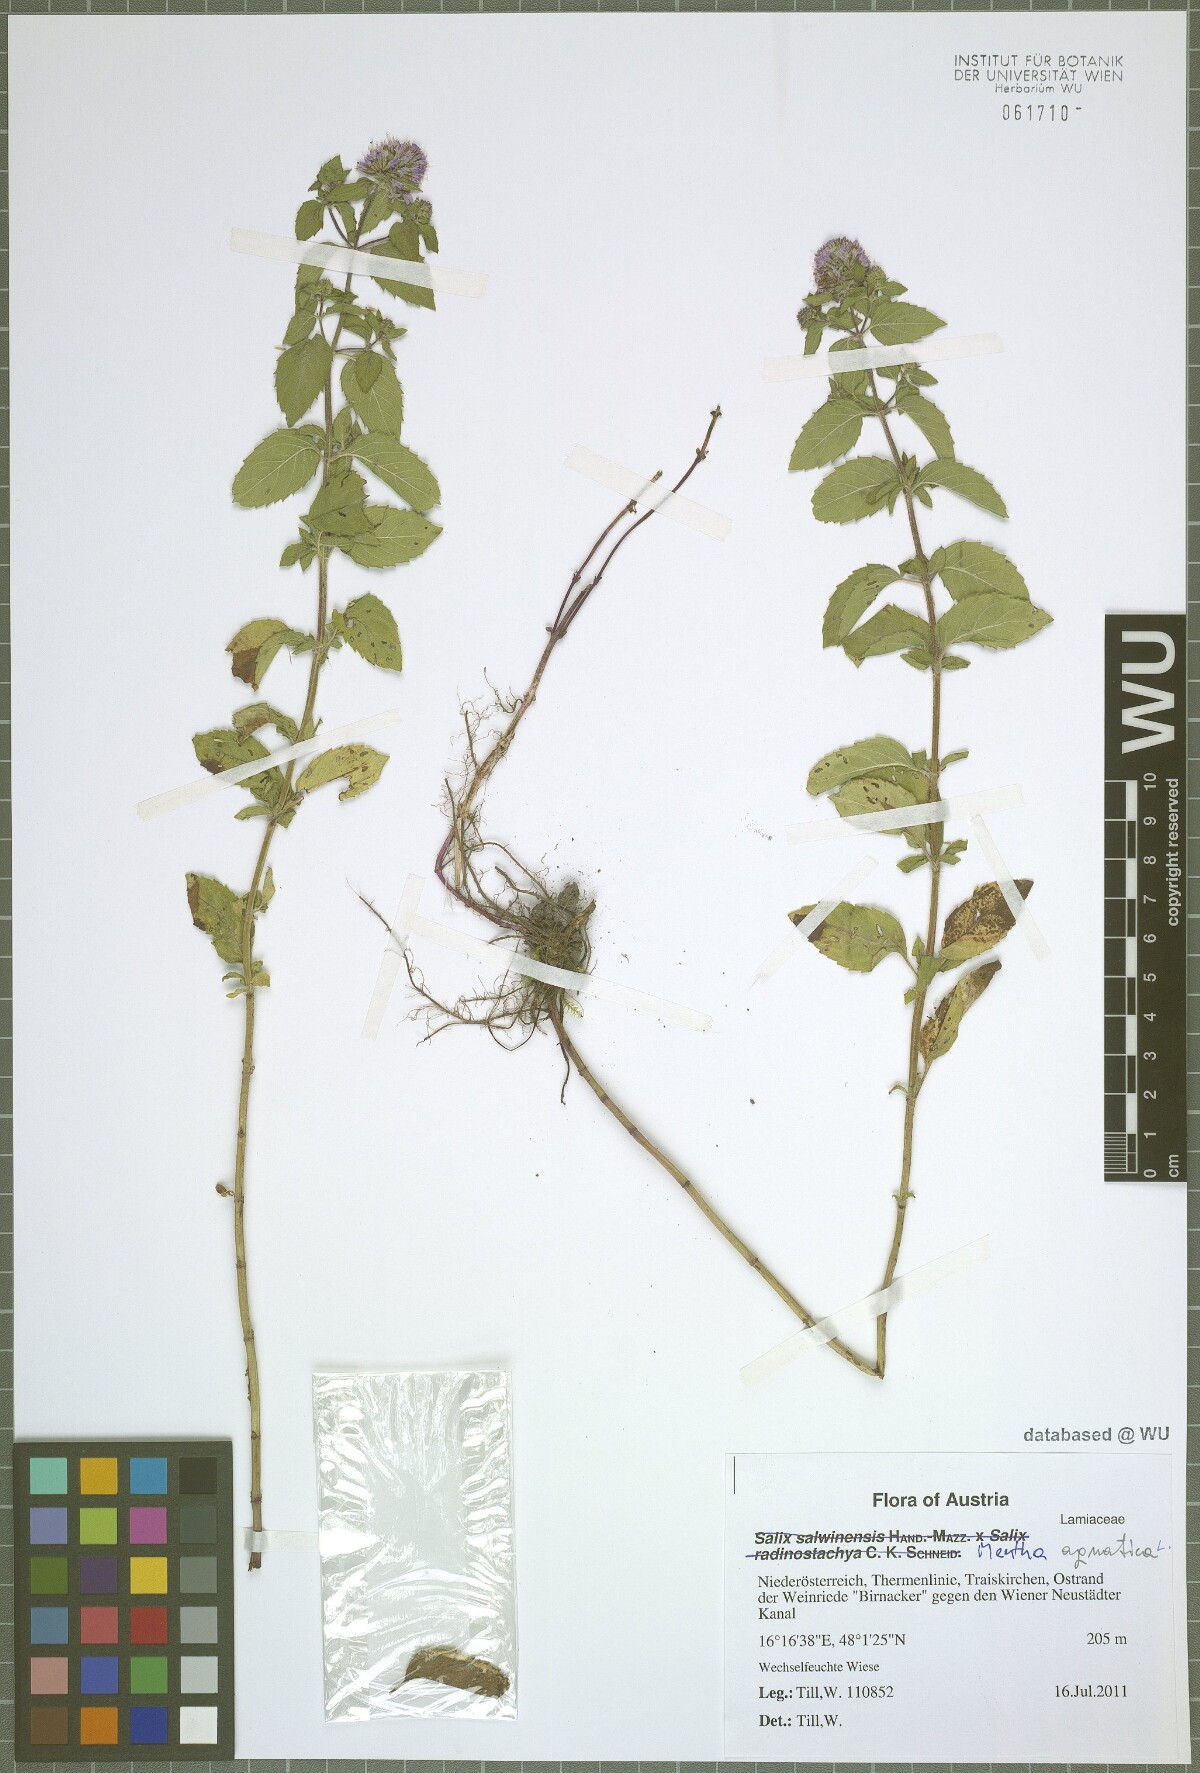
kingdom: Plantae
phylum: Tracheophyta
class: Magnoliopsida
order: Lamiales
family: Lamiaceae
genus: Mentha
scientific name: Mentha aquatica
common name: Water mint
